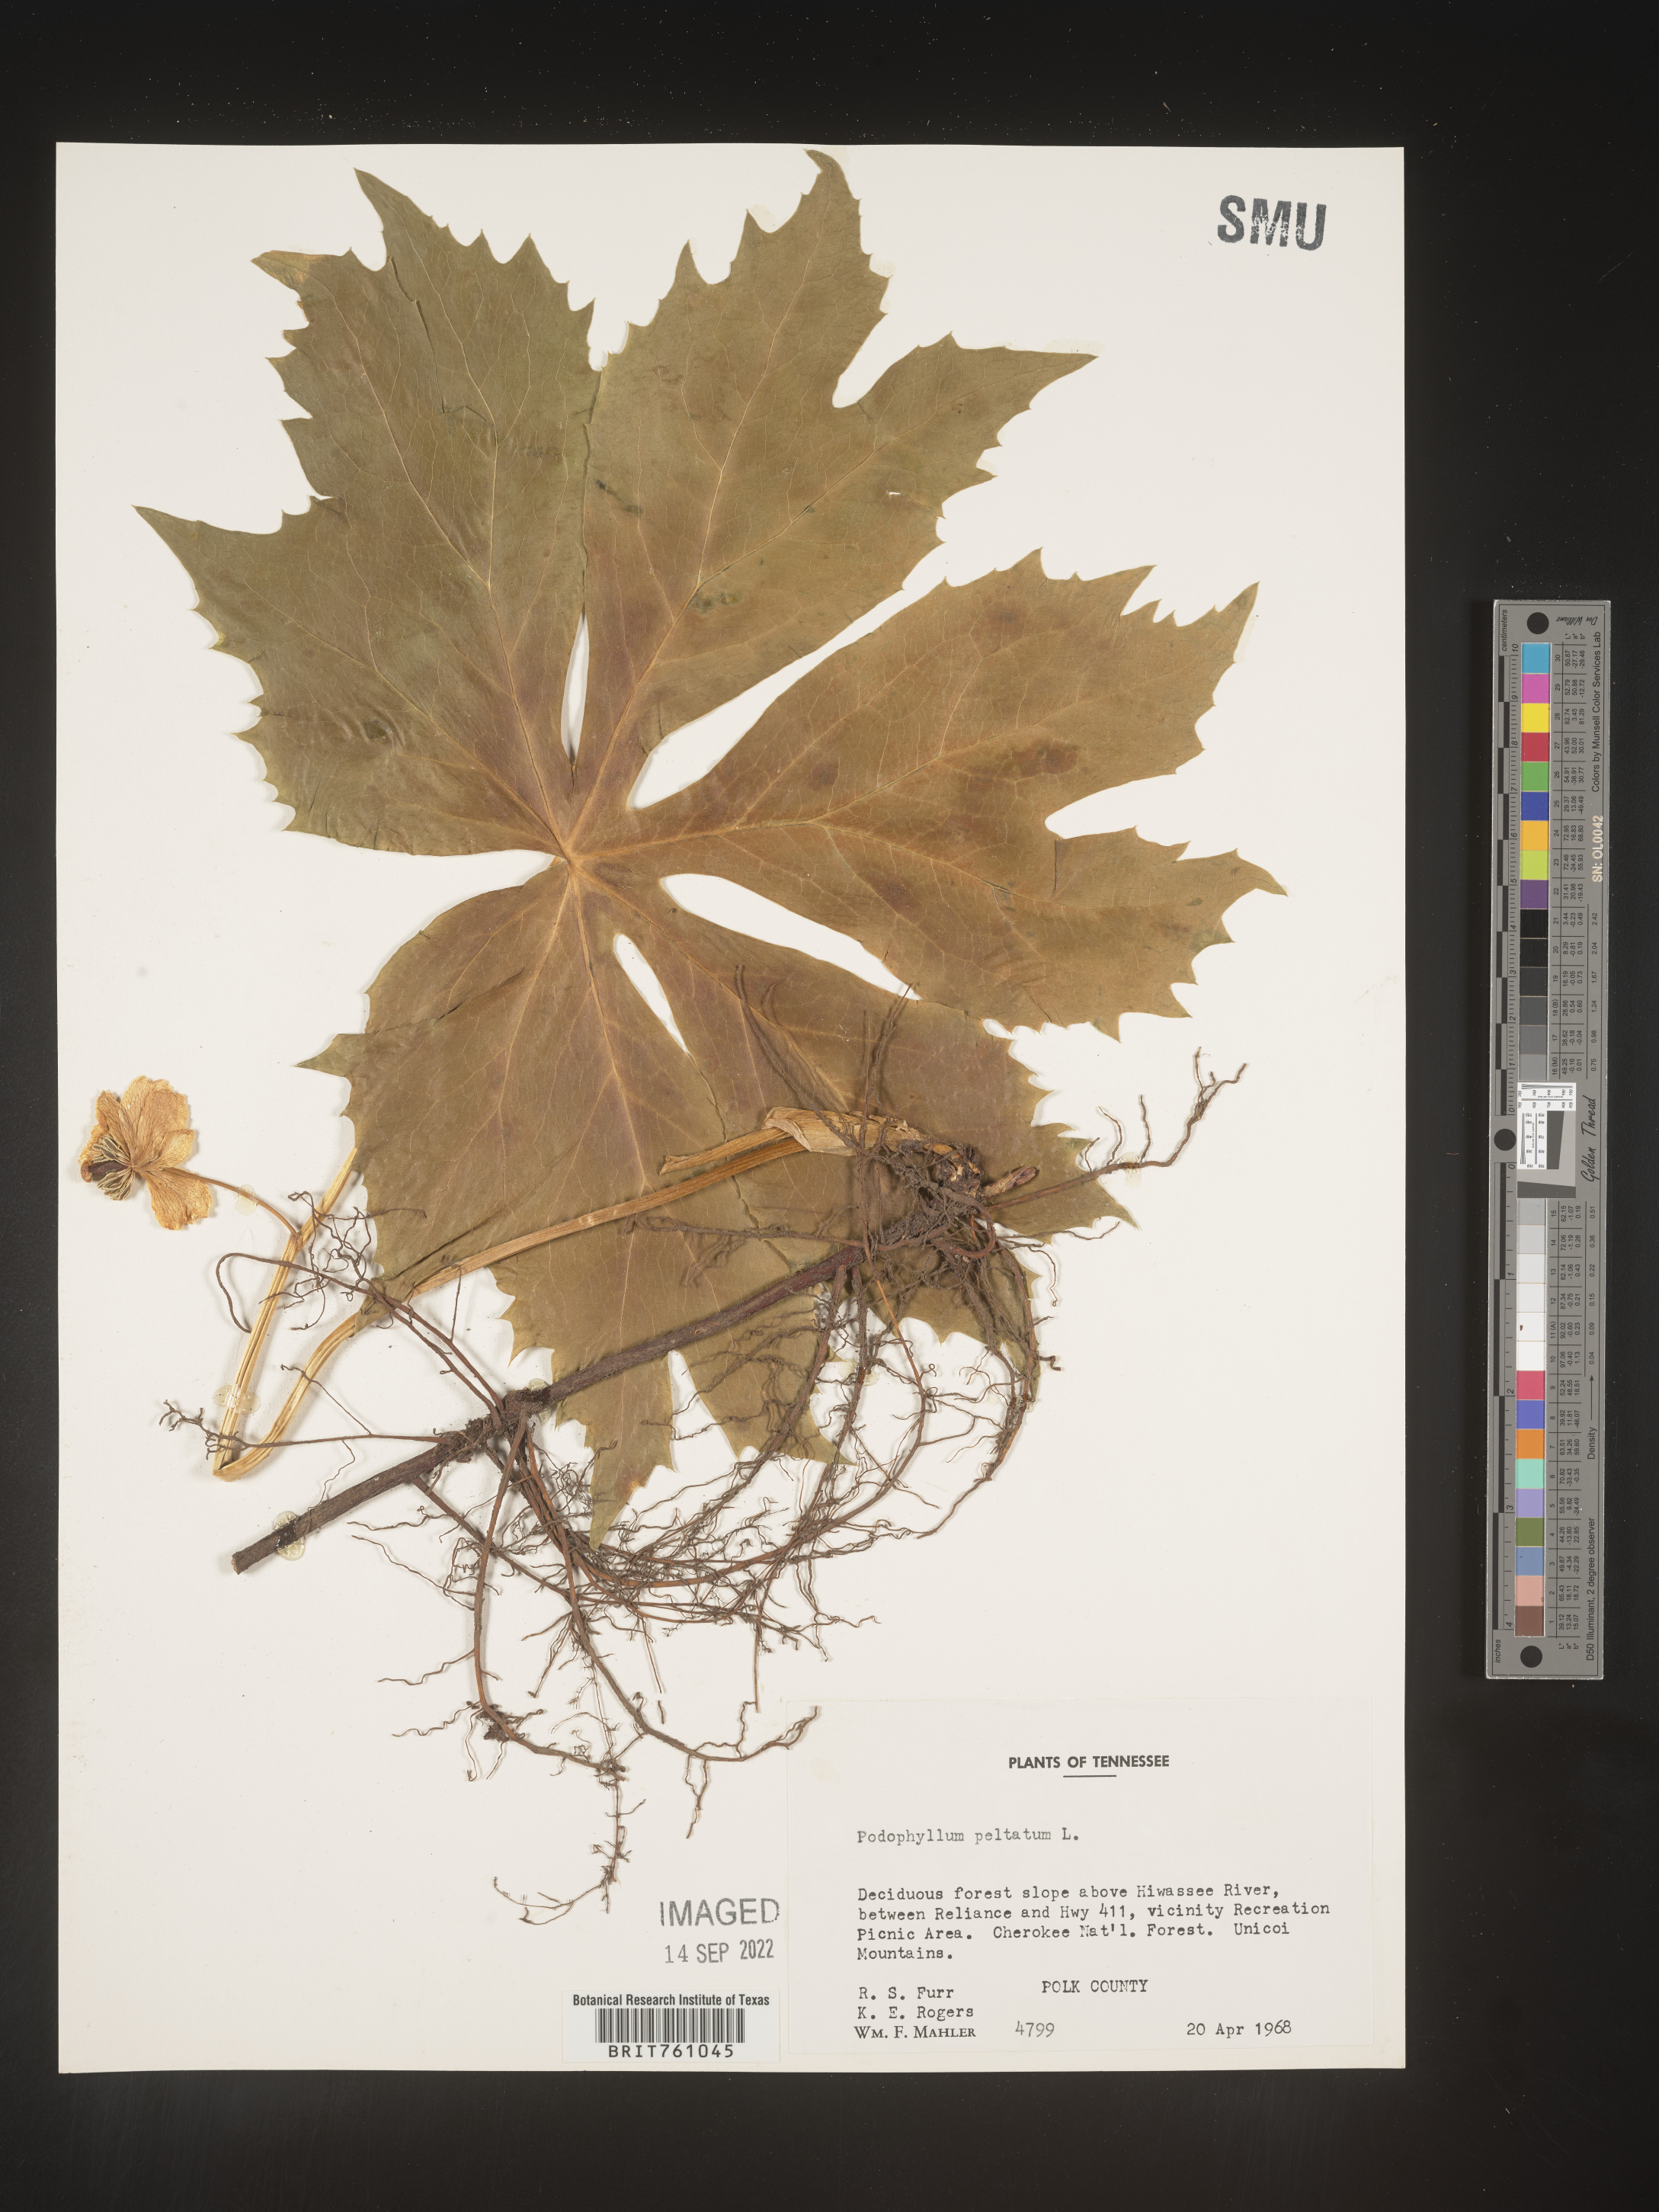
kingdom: Plantae
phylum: Tracheophyta
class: Magnoliopsida
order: Ranunculales
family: Berberidaceae
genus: Podophyllum
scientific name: Podophyllum peltatum
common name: Wild mandrake
